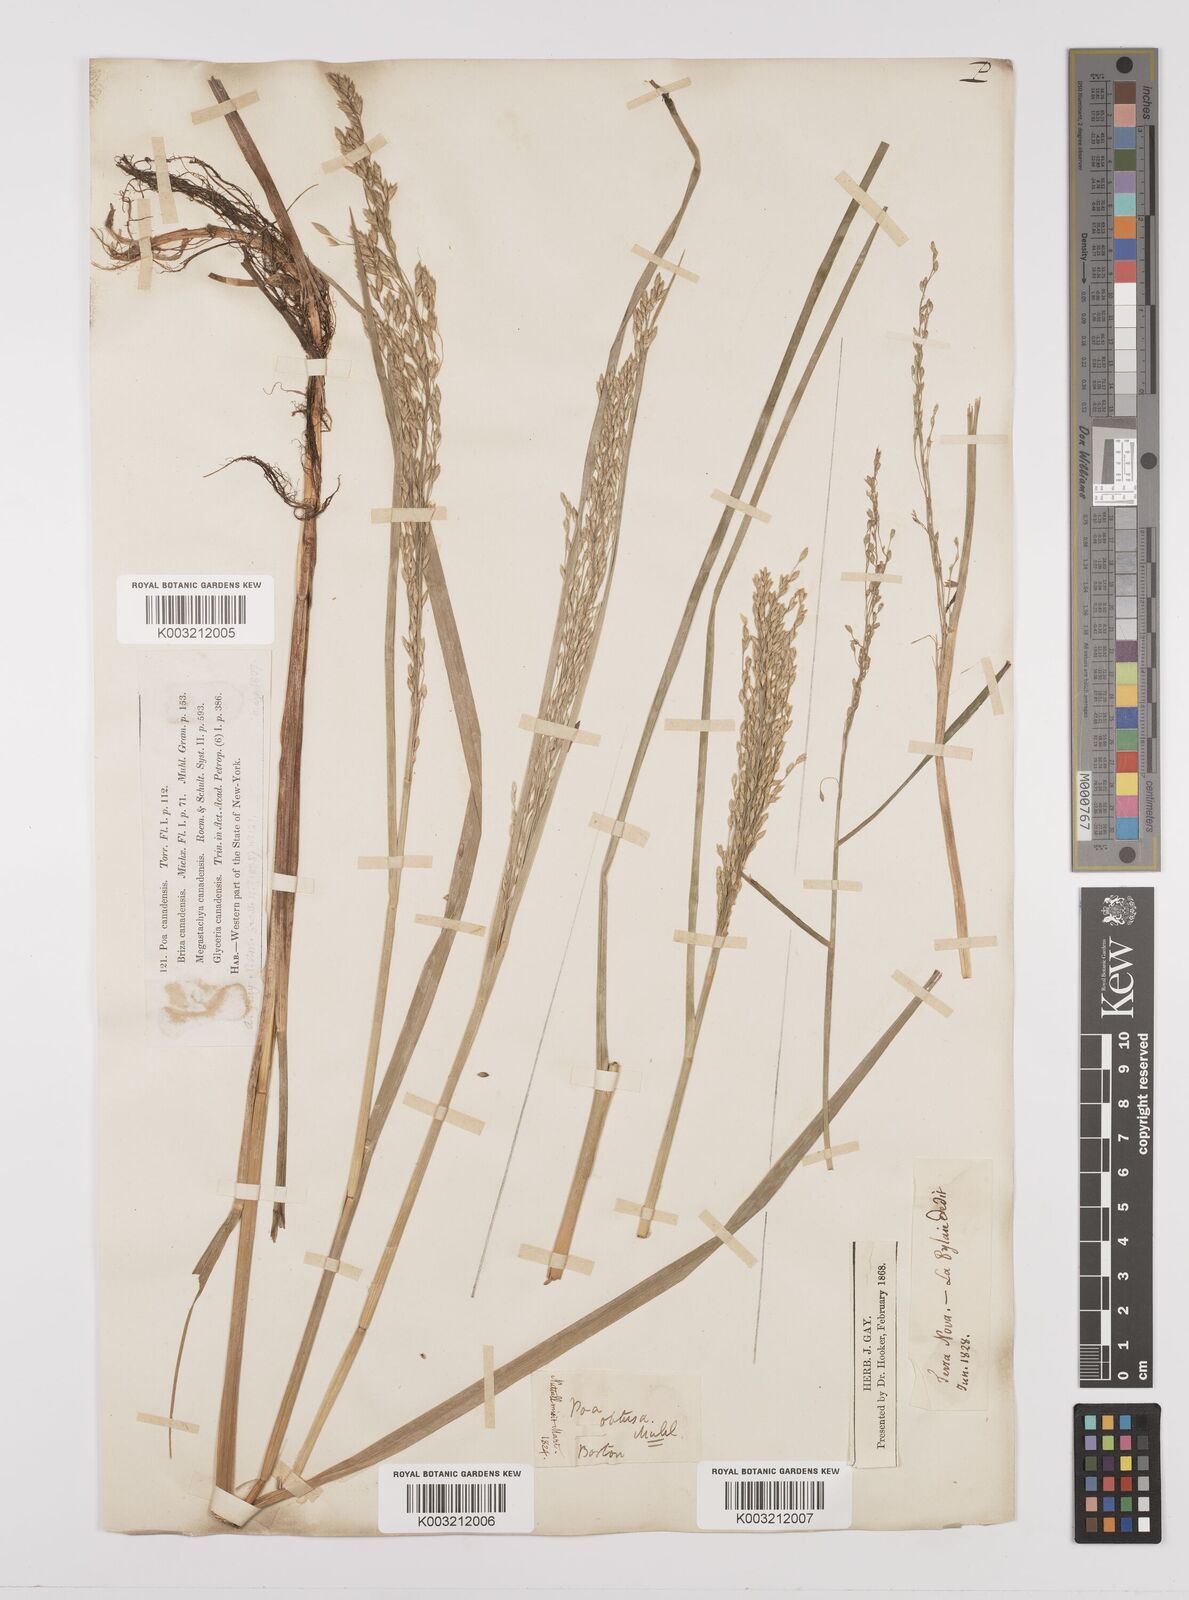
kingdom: Plantae
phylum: Tracheophyta
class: Liliopsida
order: Poales
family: Poaceae
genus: Glyceria
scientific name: Glyceria canadensis
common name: Canada mannagrass
